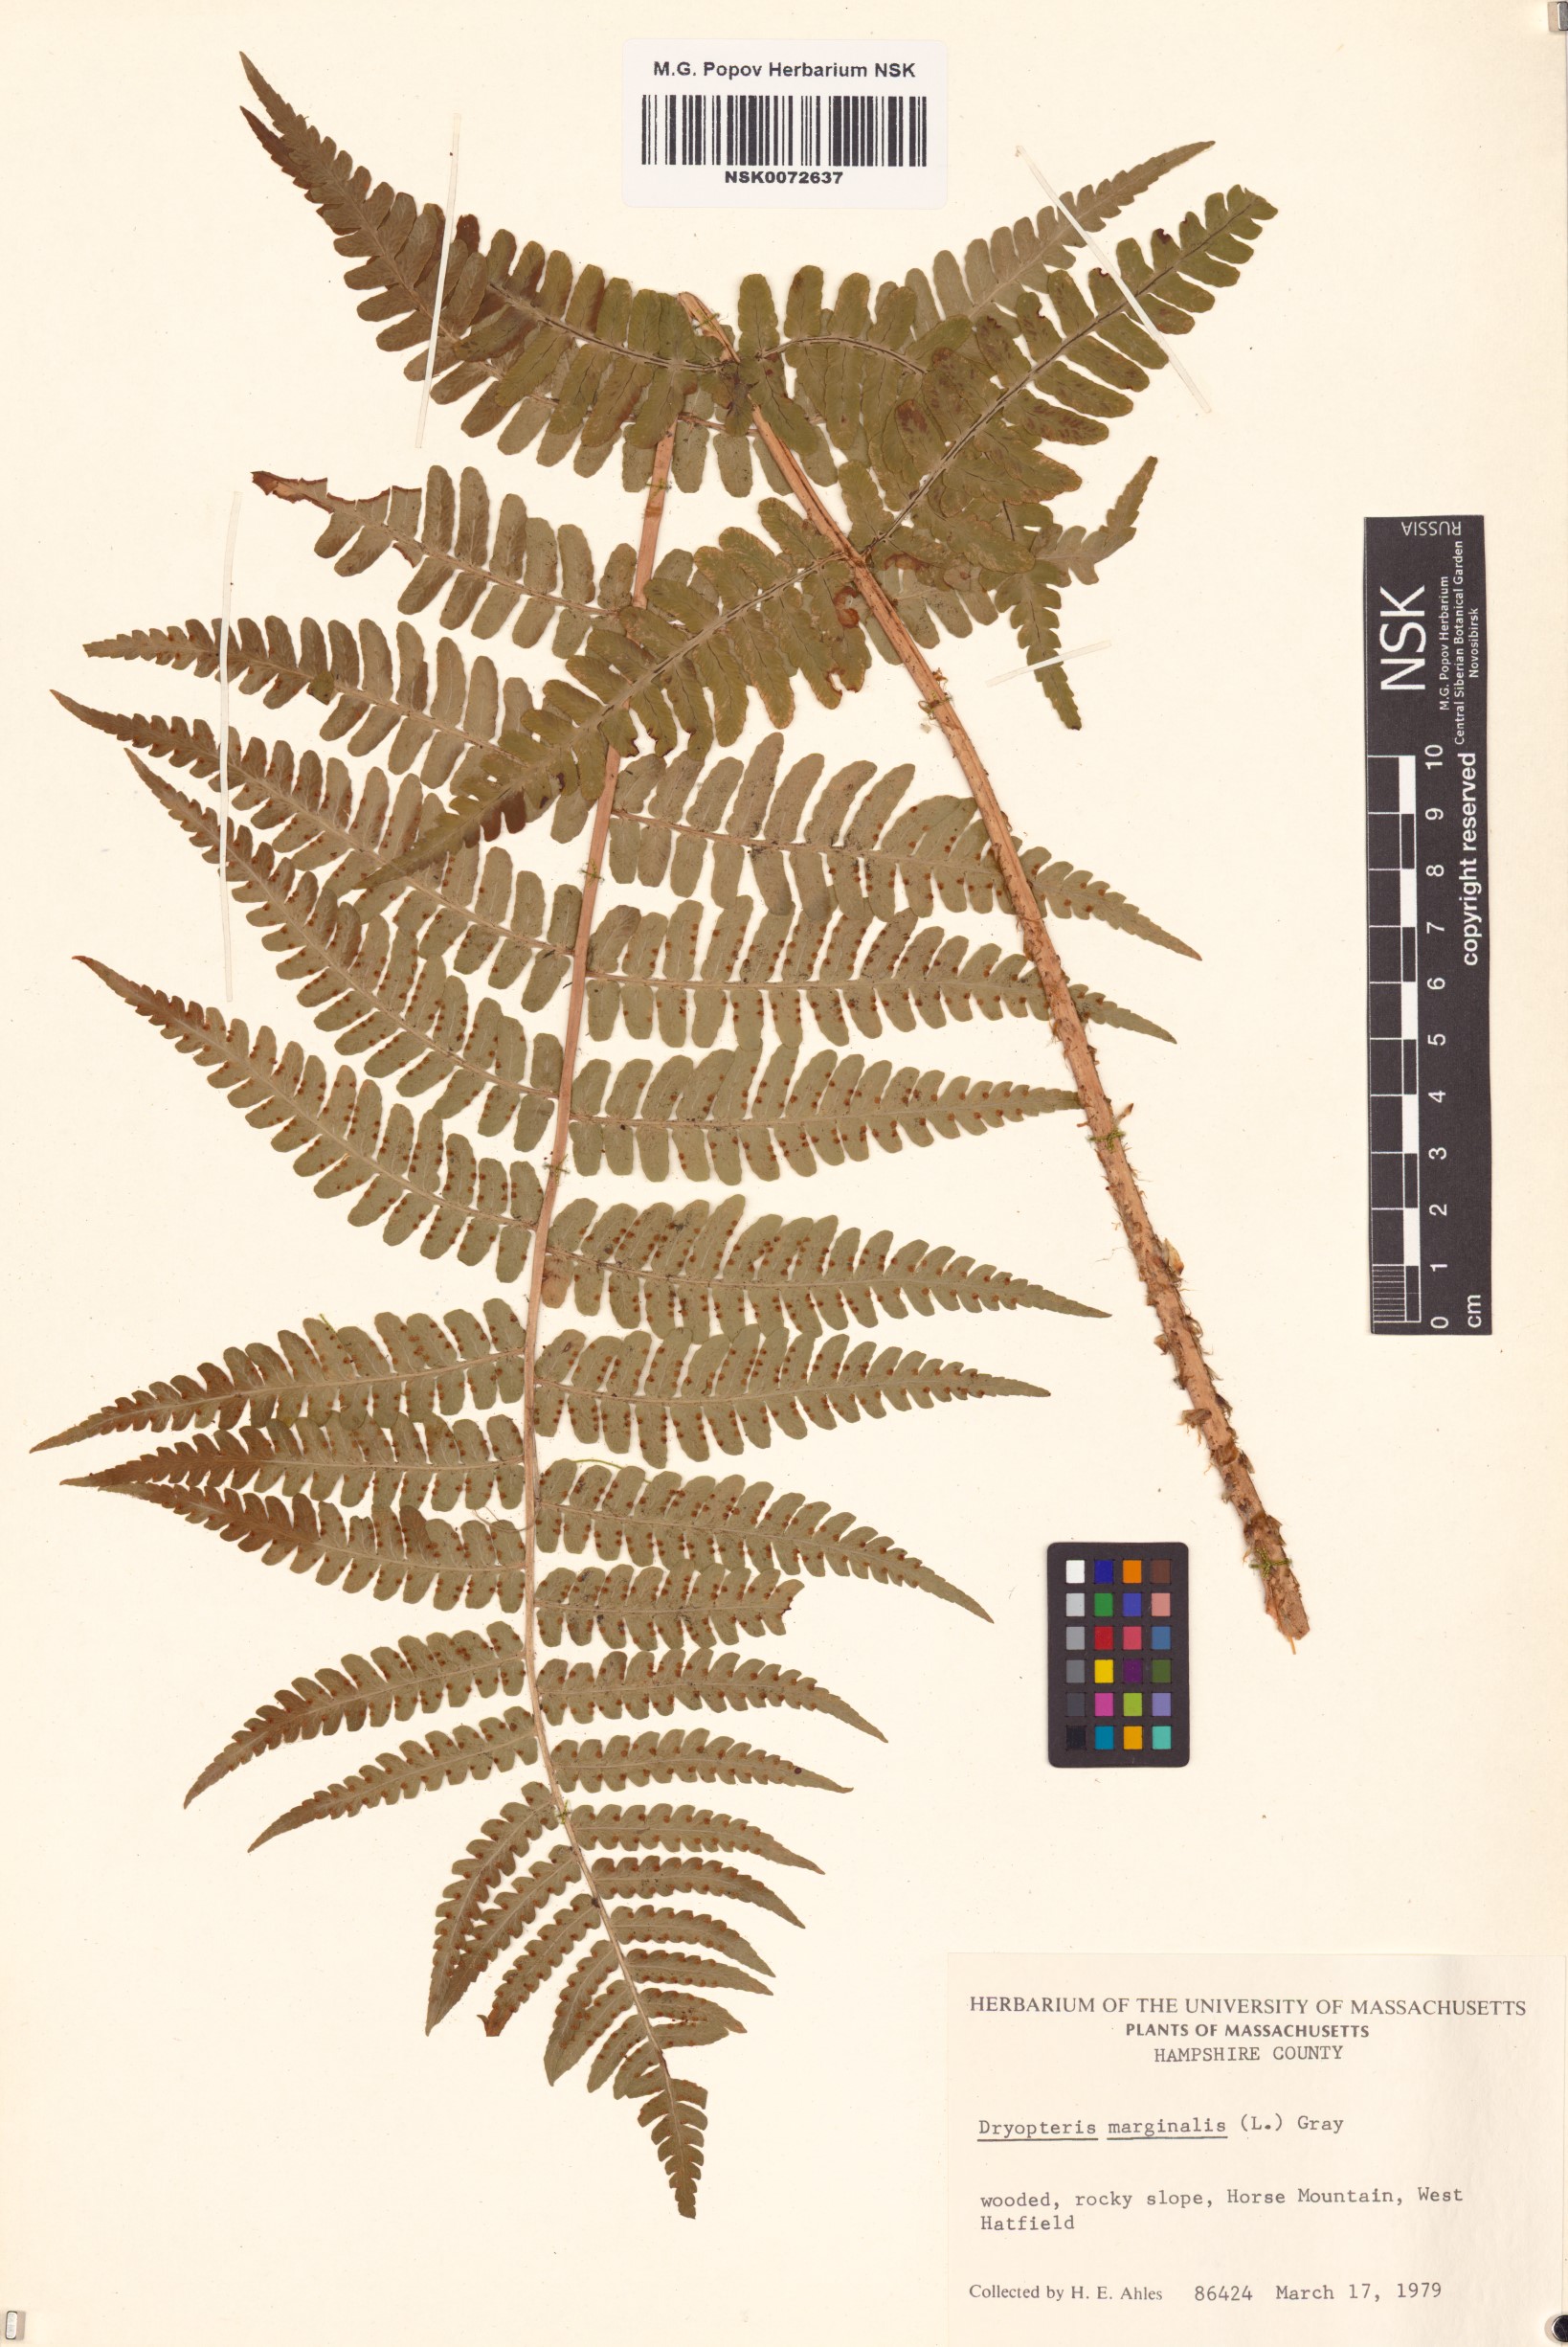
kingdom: Plantae
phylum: Tracheophyta
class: Polypodiopsida
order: Polypodiales
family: Dryopteridaceae
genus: Dryopteris
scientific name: Dryopteris marginalis
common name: Marginal wood fern
